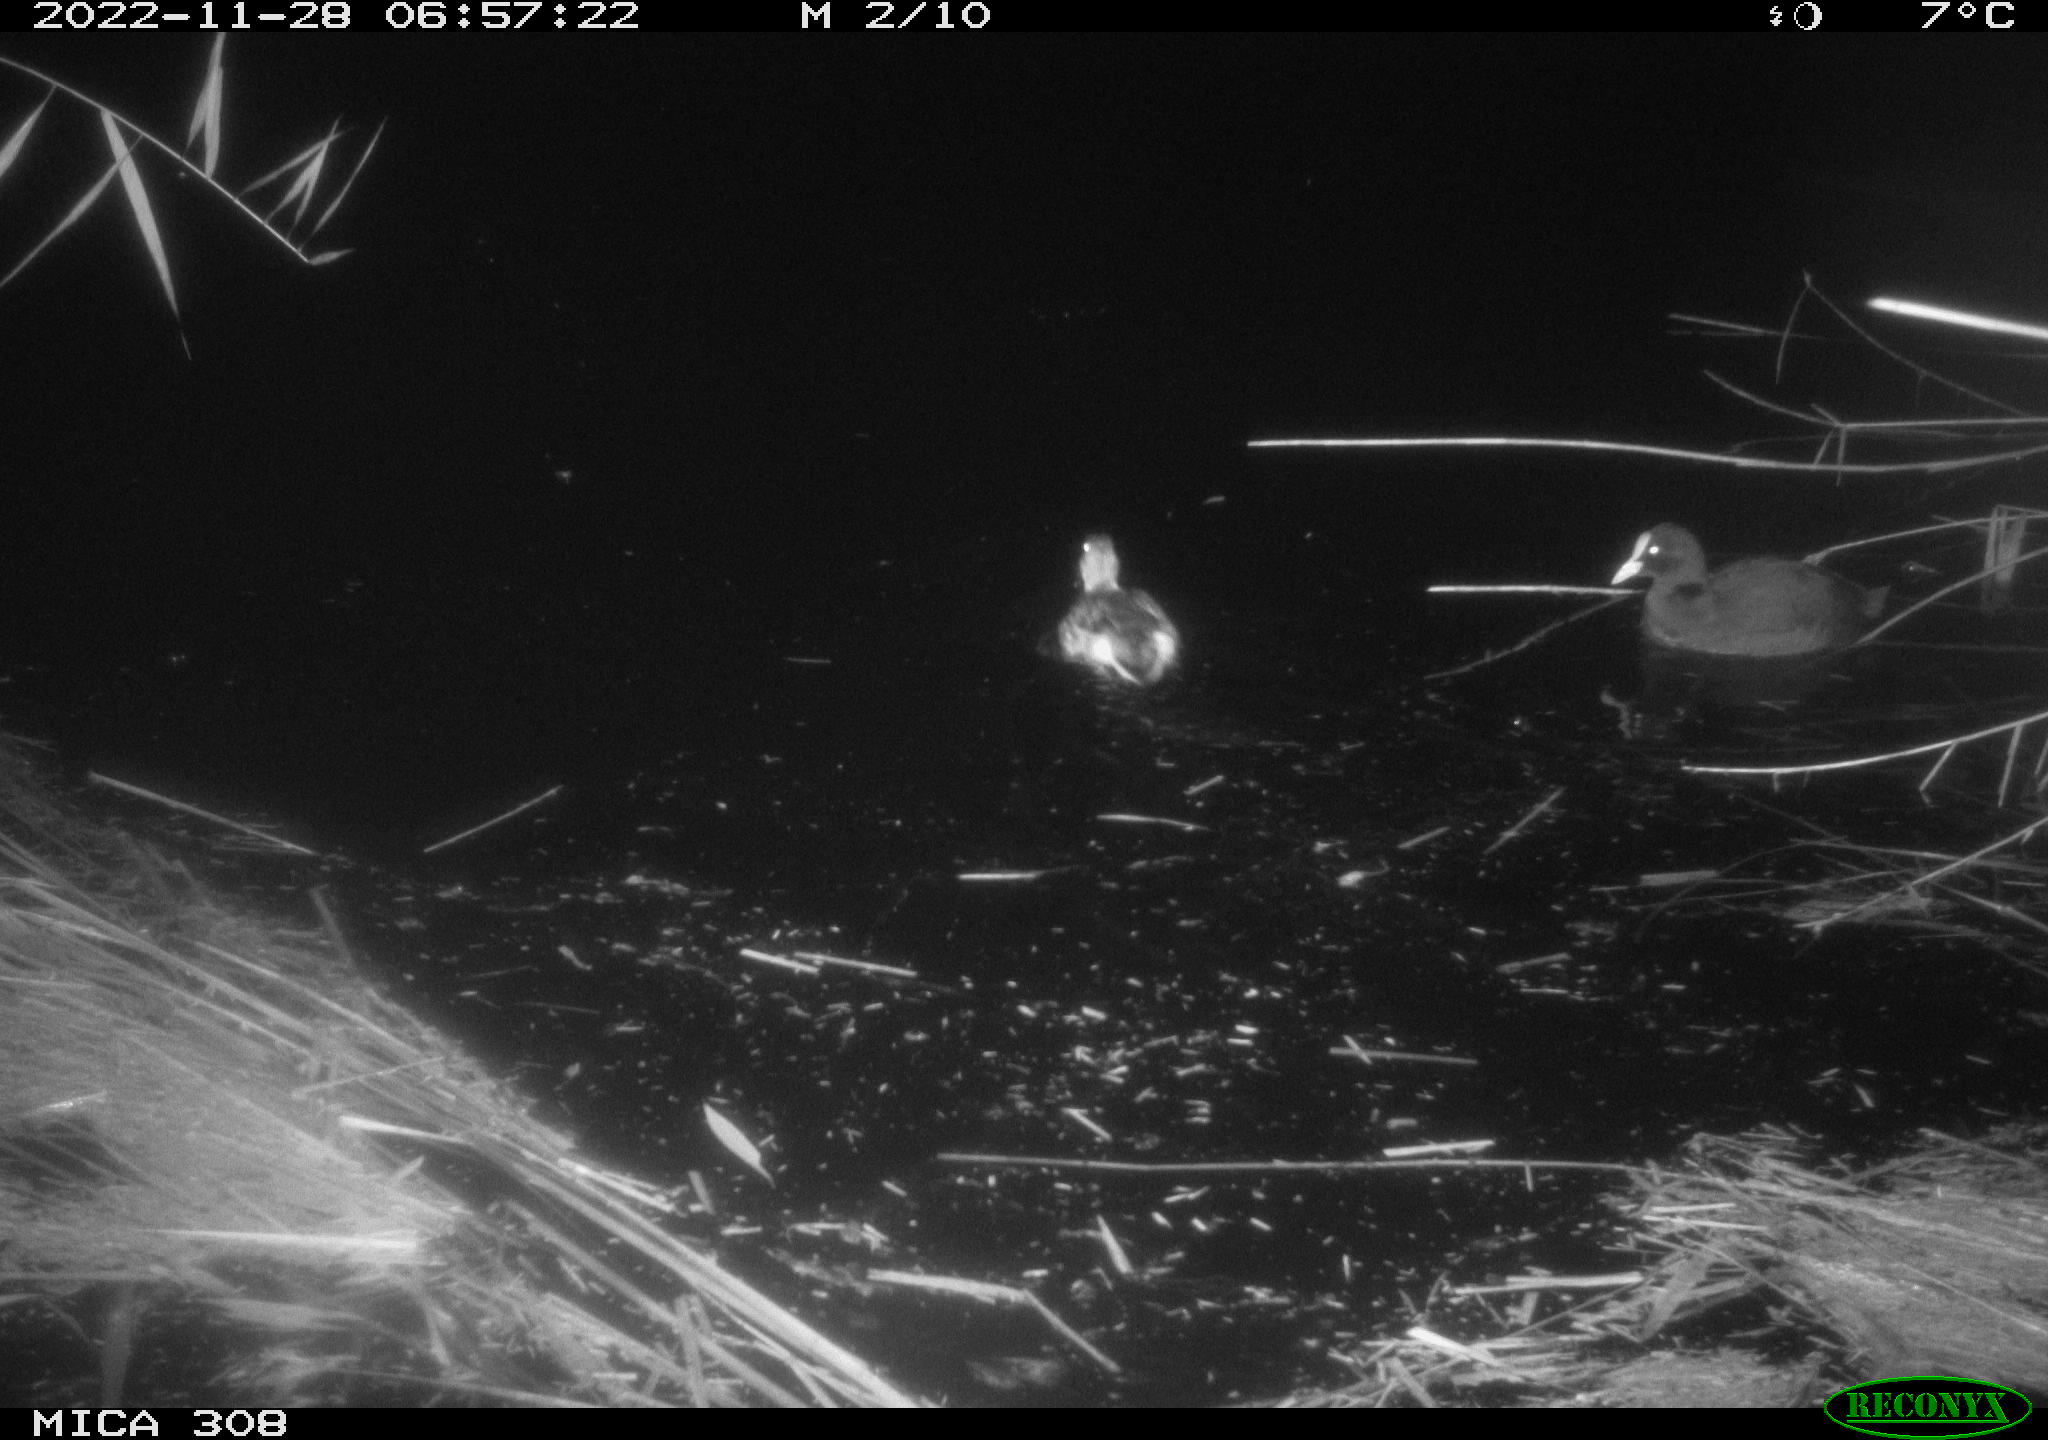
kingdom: Animalia
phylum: Chordata
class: Aves
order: Gruiformes
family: Rallidae
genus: Fulica
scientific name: Fulica atra
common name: Eurasian coot
